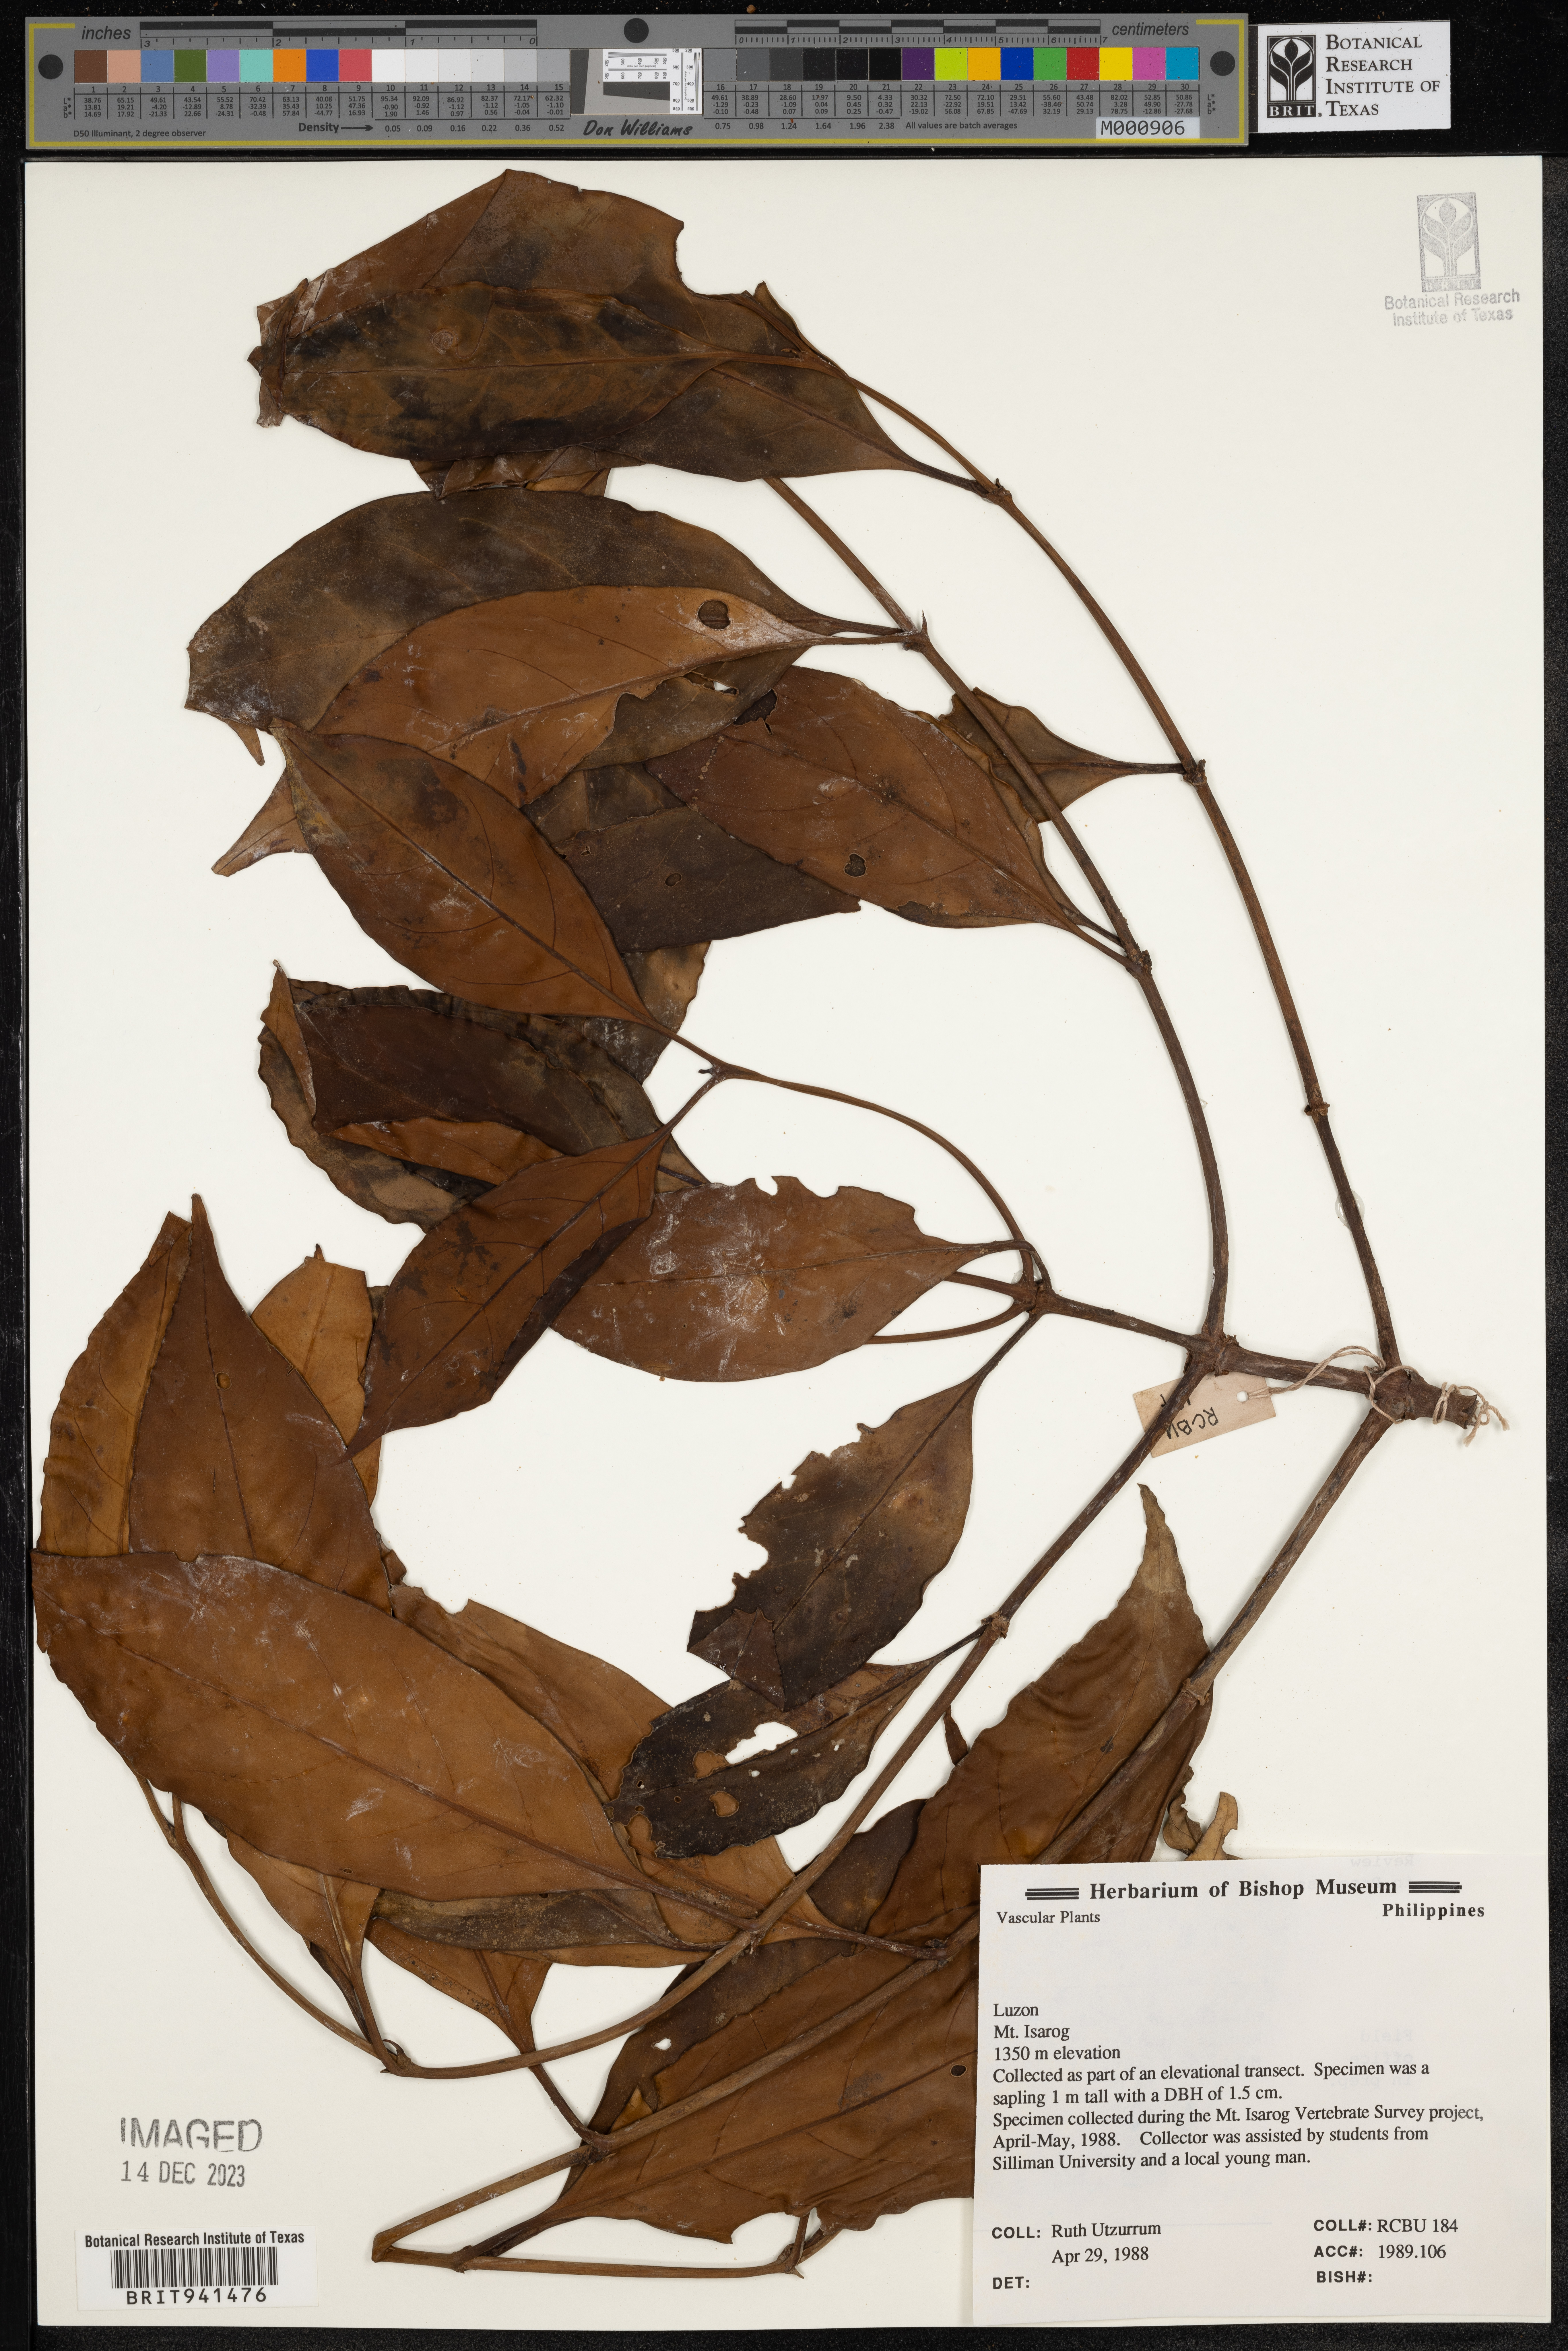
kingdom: Plantae
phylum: Tracheophyta
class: Magnoliopsida
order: Gentianales
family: Rubiaceae
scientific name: Rubiaceae
